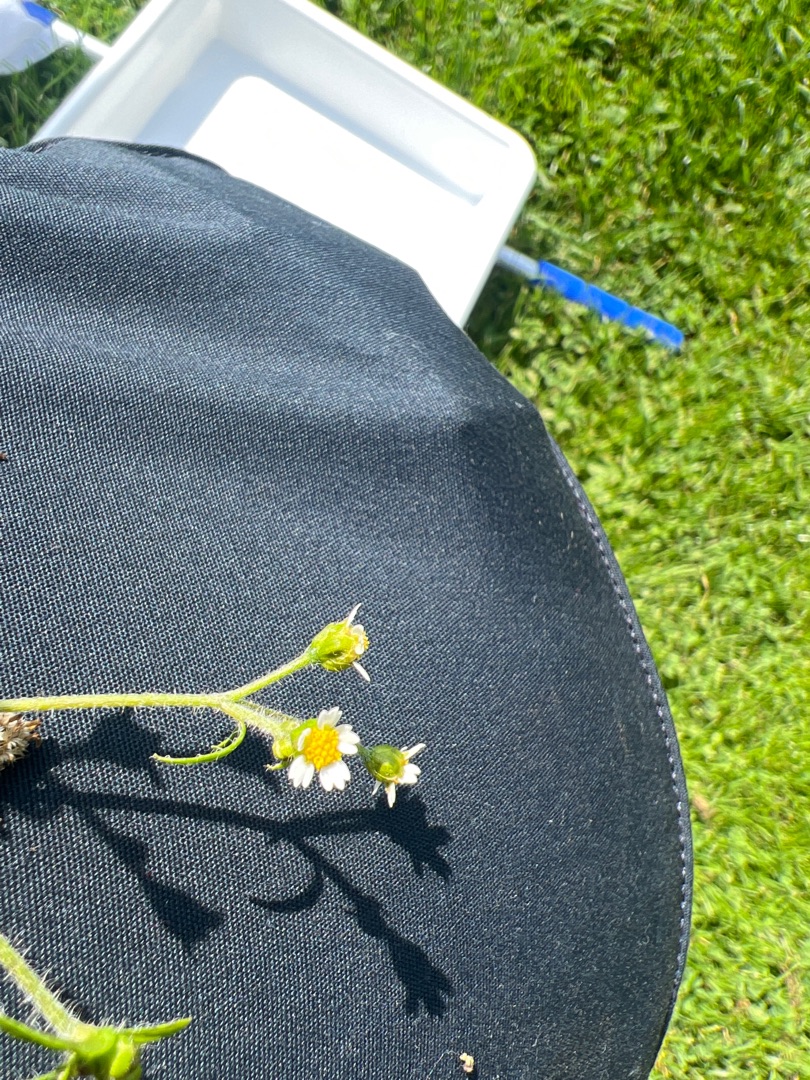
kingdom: Plantae
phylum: Tracheophyta
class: Magnoliopsida
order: Asterales
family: Asteraceae
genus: Galinsoga
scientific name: Galinsoga quadriradiata
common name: Kirtel-kortstråle
